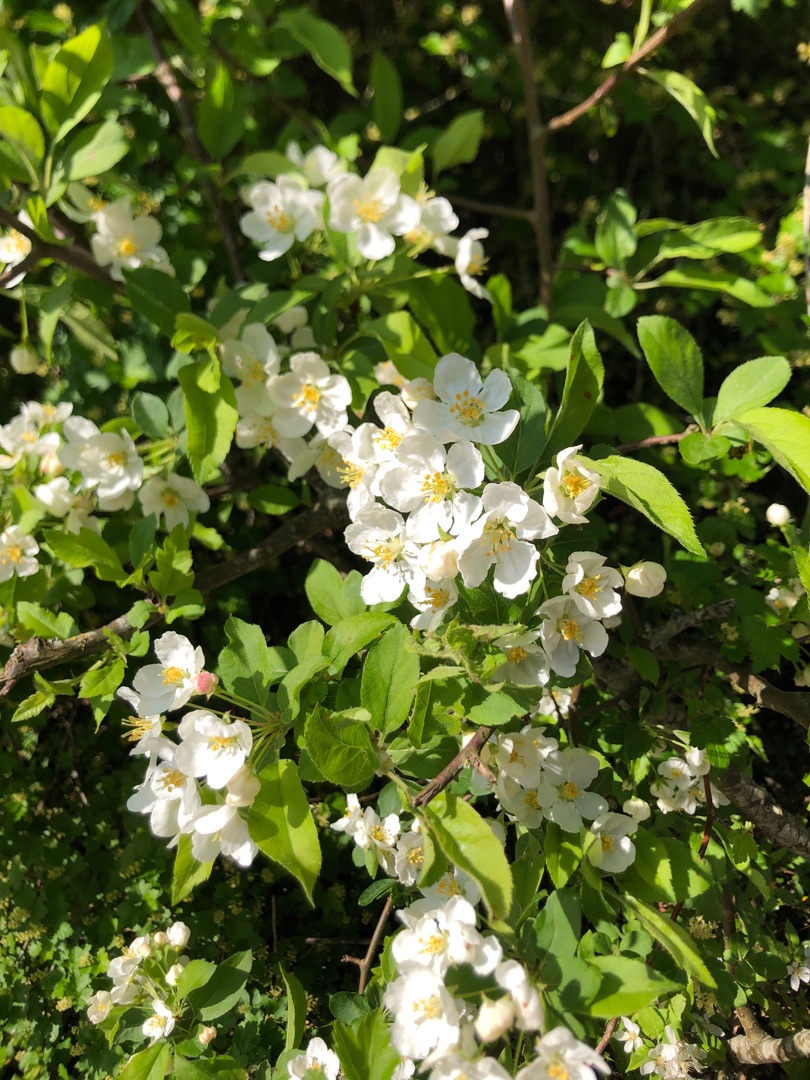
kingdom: Plantae
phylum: Tracheophyta
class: Magnoliopsida
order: Rosales
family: Rosaceae
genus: Malus
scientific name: Malus
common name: Æbleslægten
